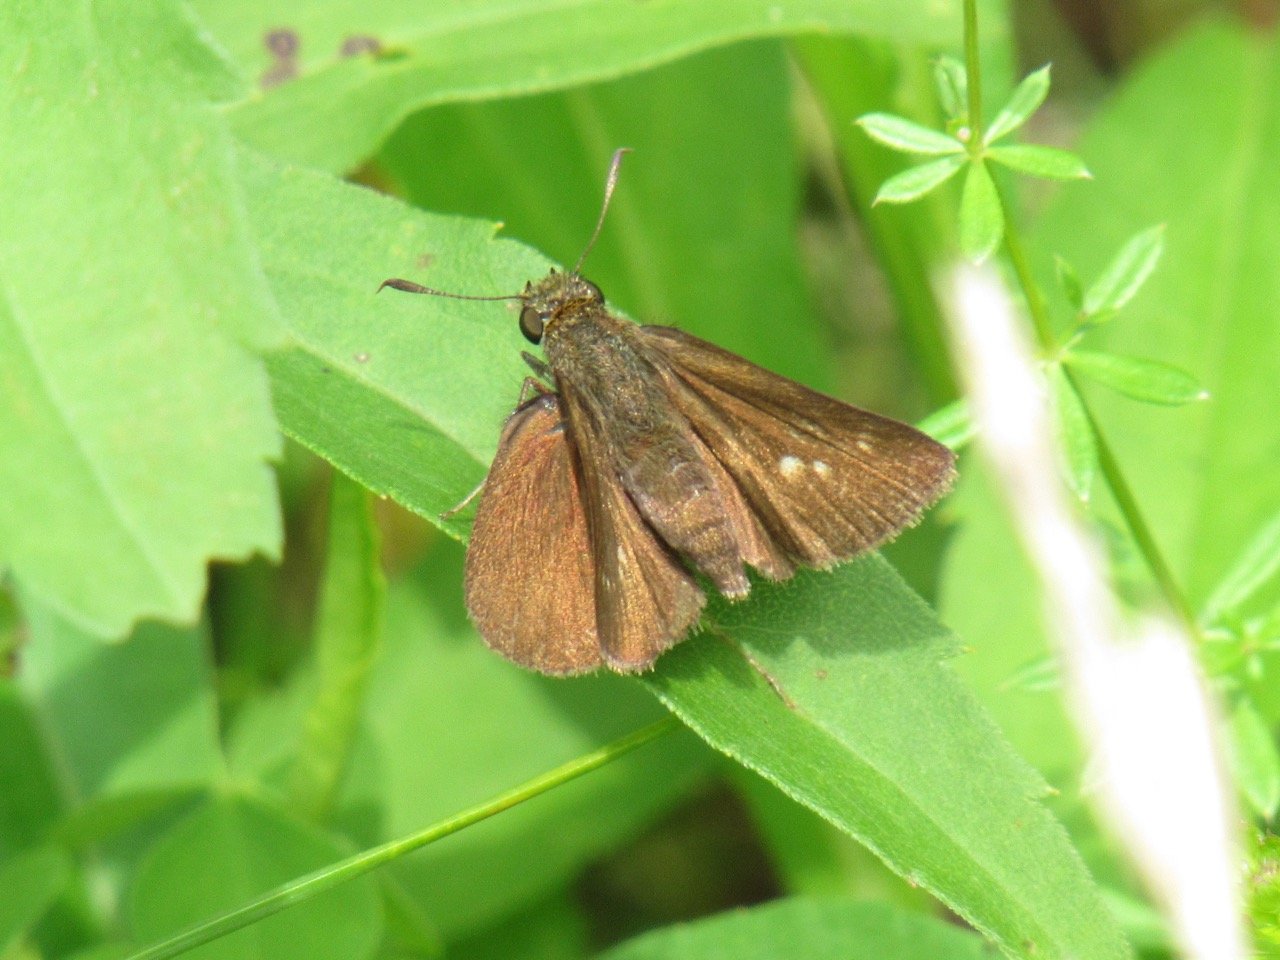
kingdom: Animalia
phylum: Arthropoda
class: Insecta
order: Lepidoptera
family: Hesperiidae
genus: Euphyes
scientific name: Euphyes vestris
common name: Dun Skipper
